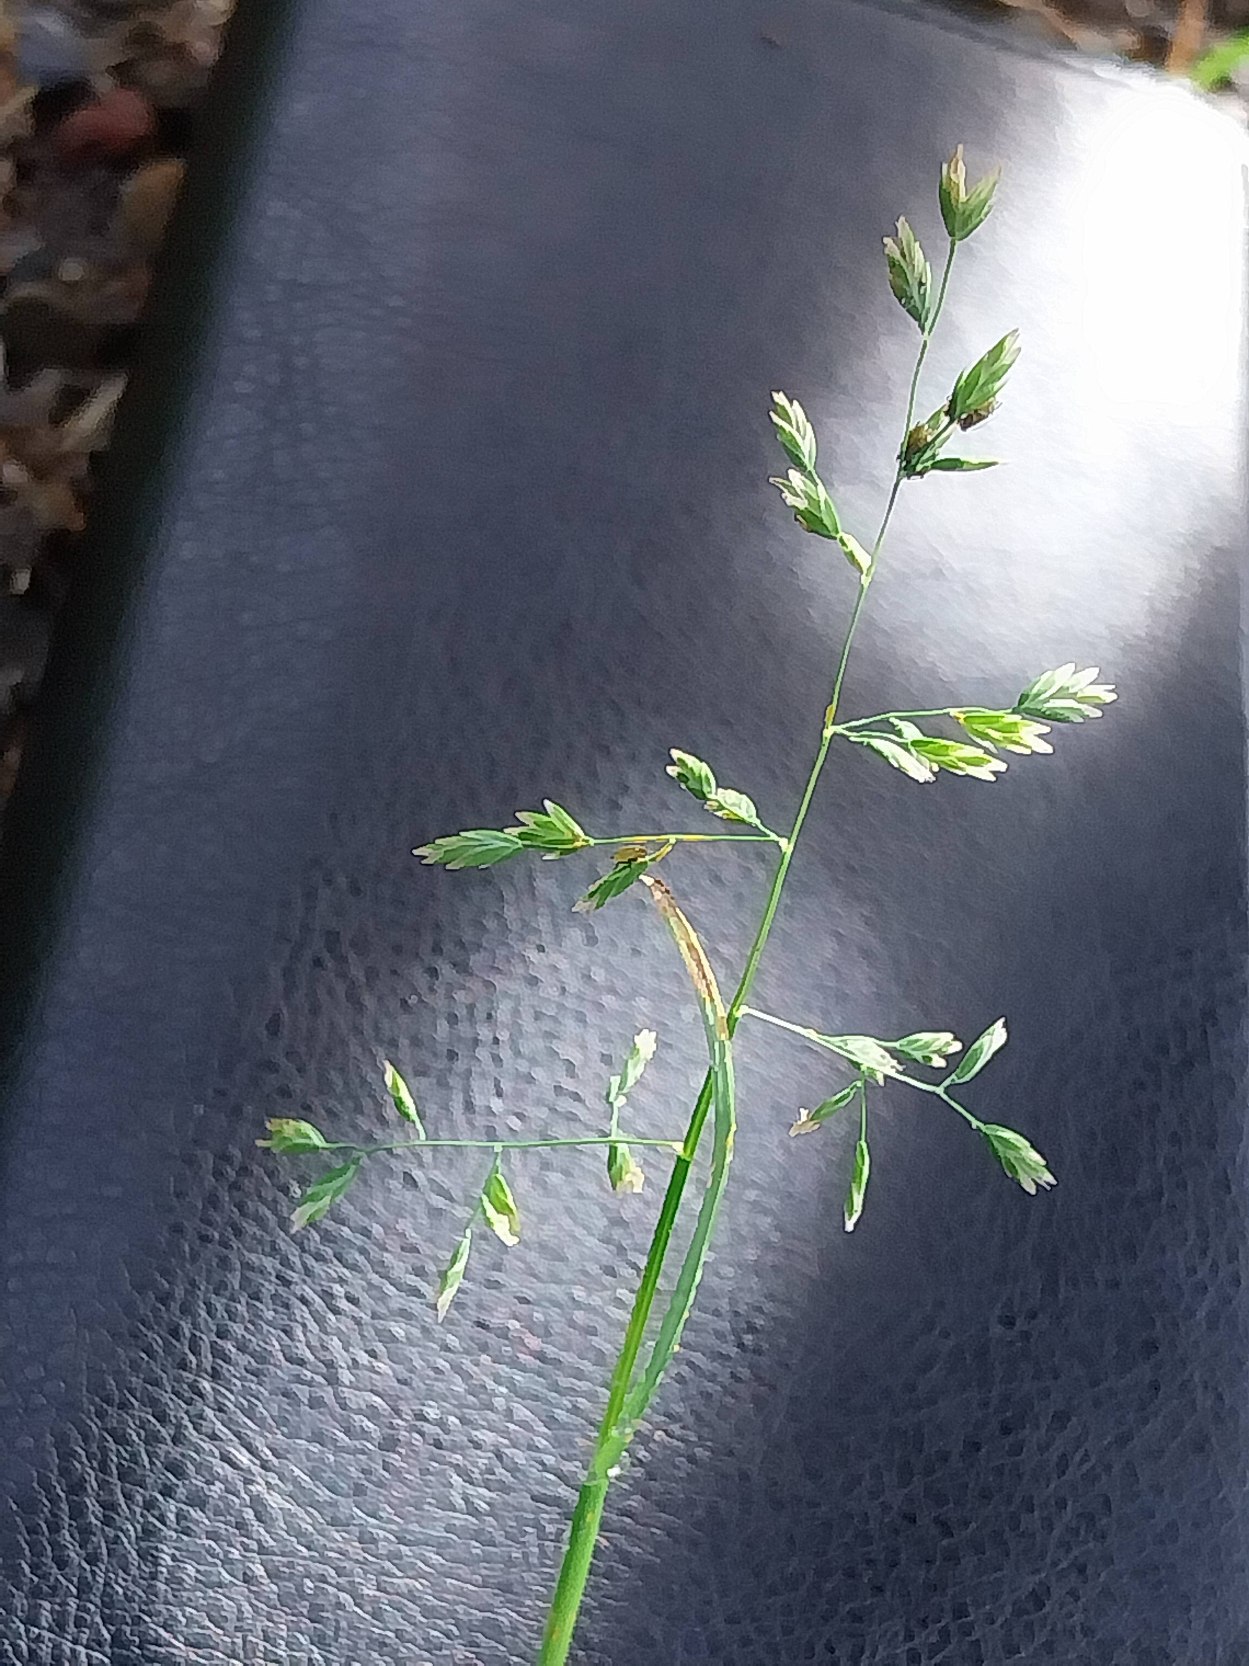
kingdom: Plantae
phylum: Tracheophyta
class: Liliopsida
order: Poales
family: Poaceae
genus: Poa
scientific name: Poa annua
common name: Enårig rapgræs
